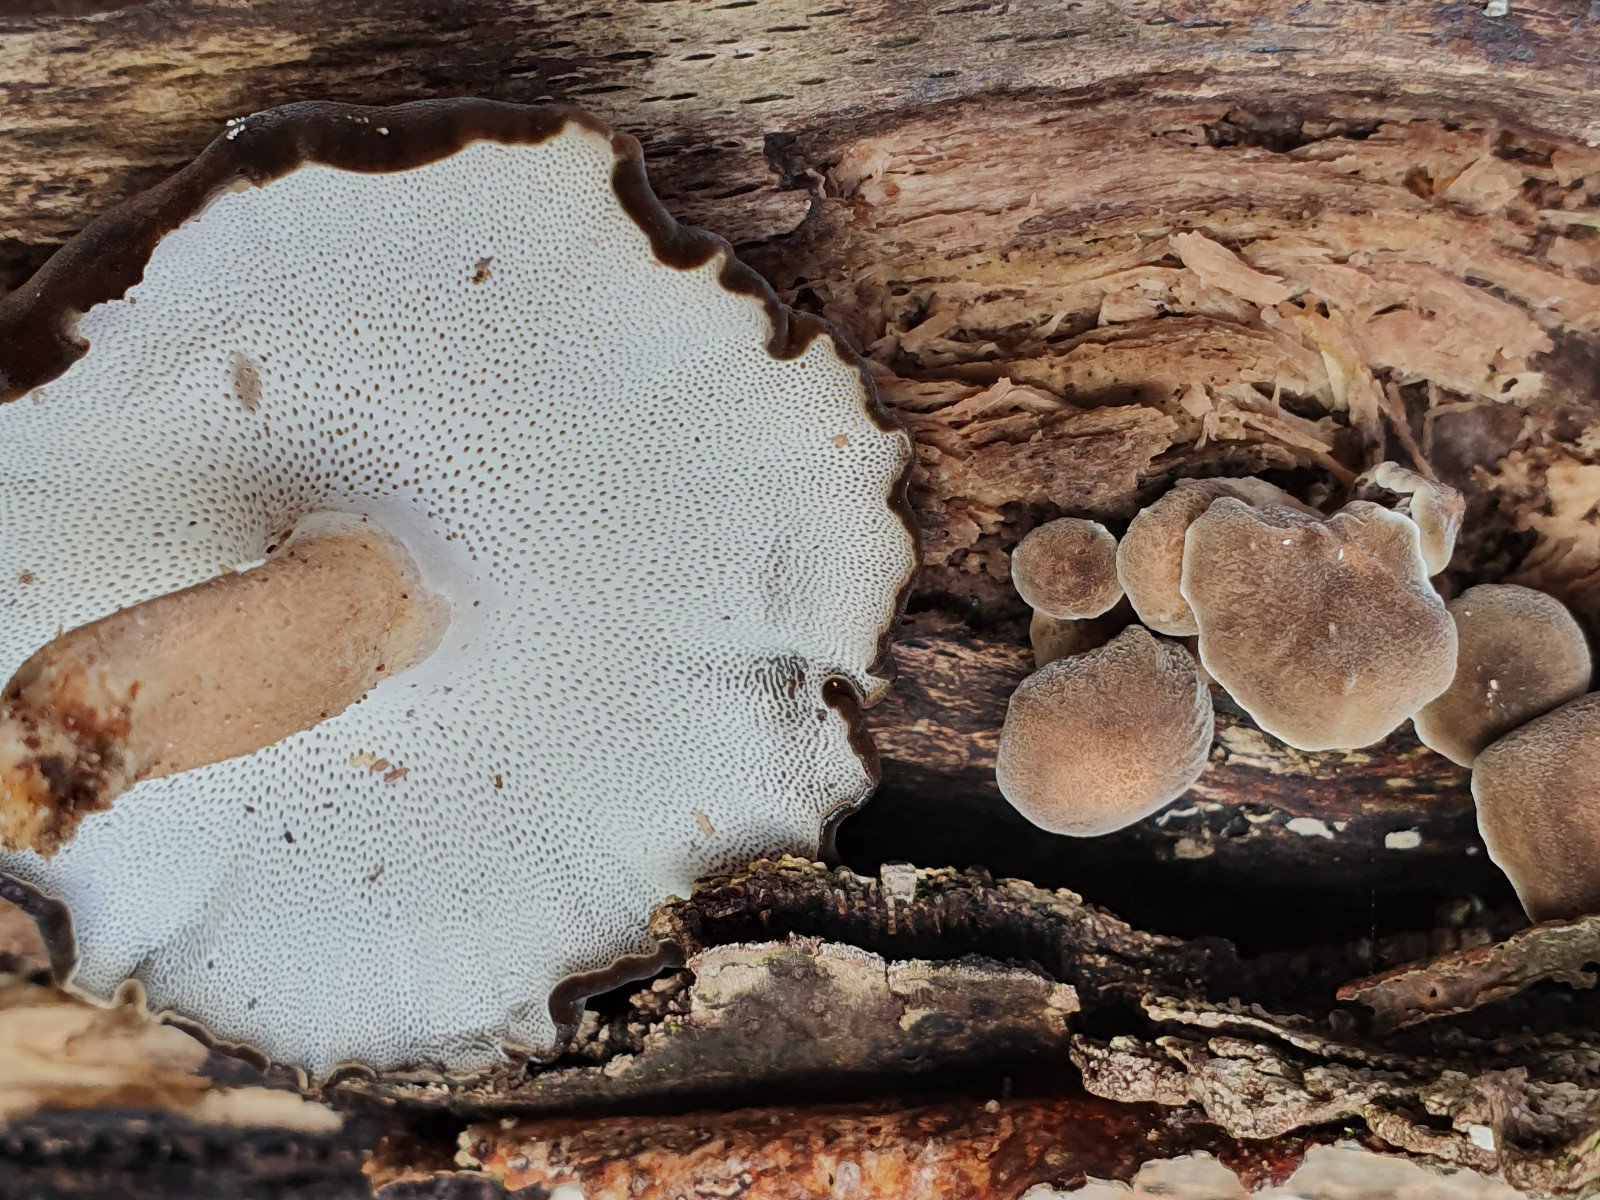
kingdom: Fungi
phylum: Basidiomycota
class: Agaricomycetes
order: Polyporales
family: Polyporaceae
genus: Lentinus
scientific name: Lentinus brumalis
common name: vinter-stilkporesvamp
